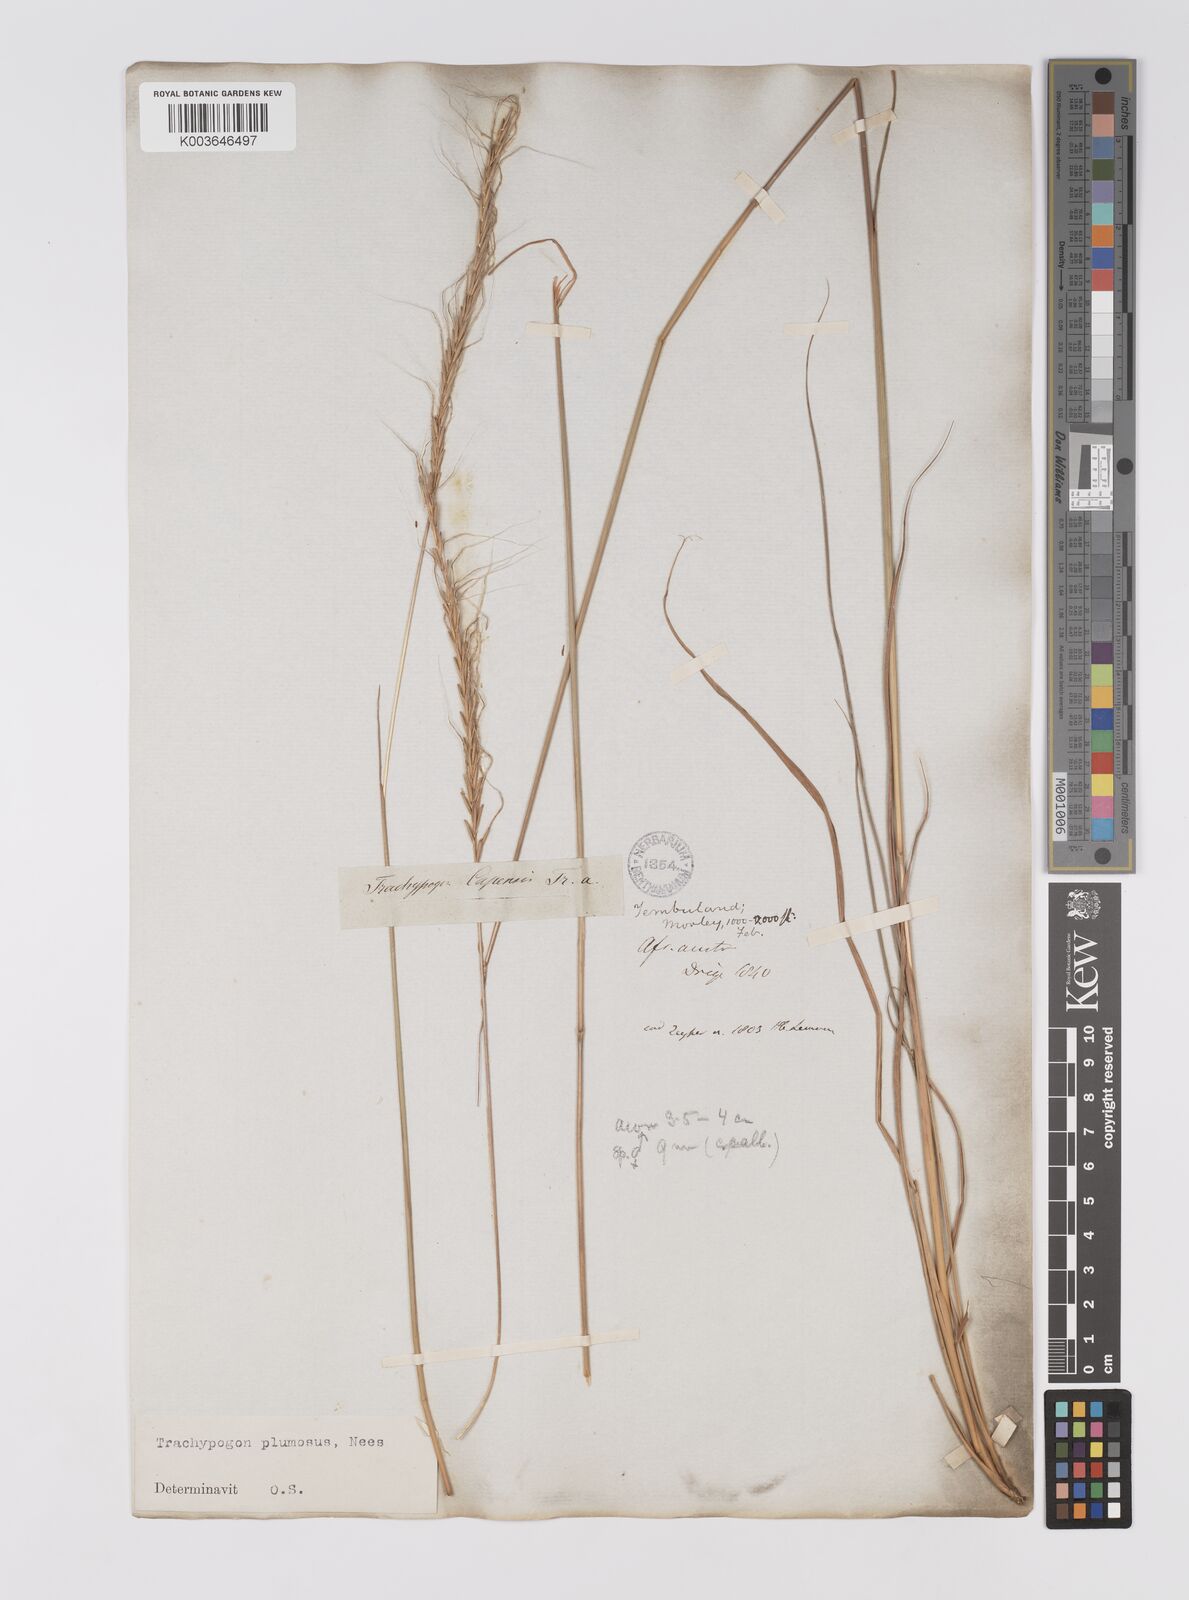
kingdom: Plantae
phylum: Tracheophyta
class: Liliopsida
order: Poales
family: Poaceae
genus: Trachypogon
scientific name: Trachypogon spicatus
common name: Crinkle-awn
